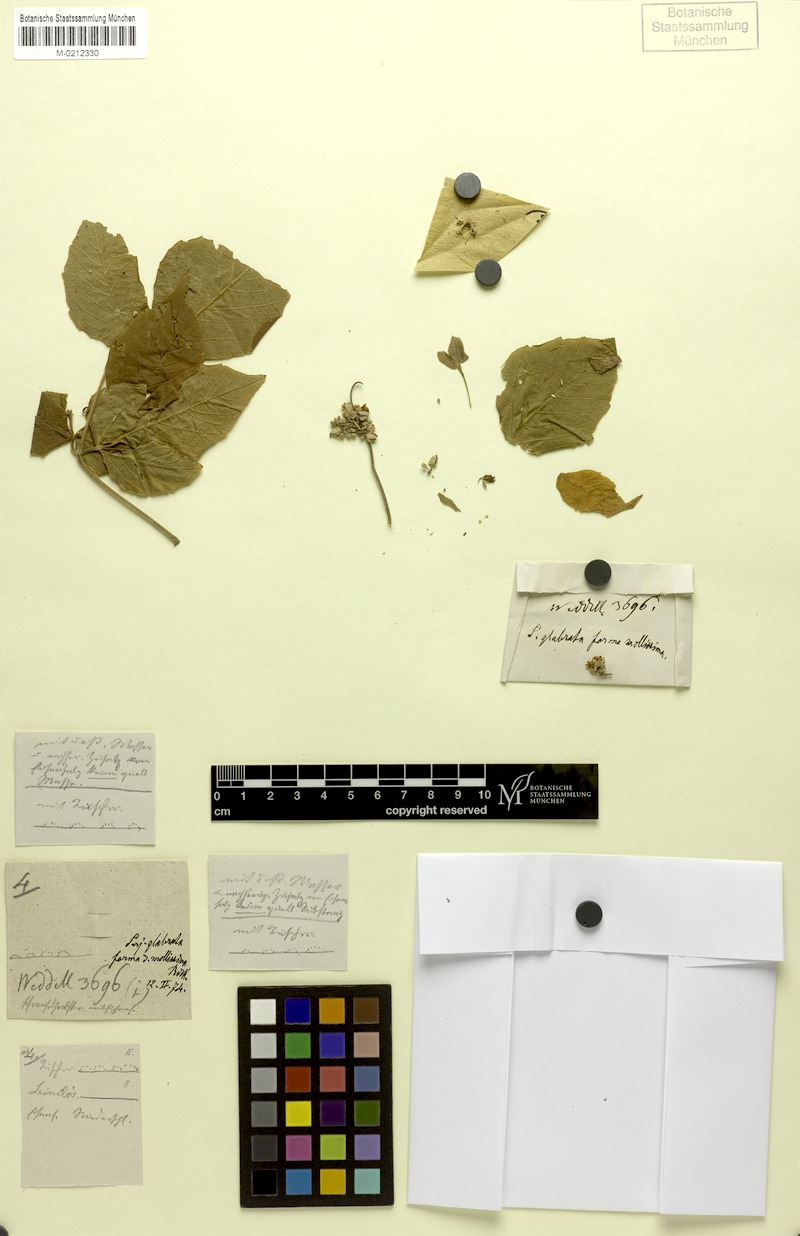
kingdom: Plantae
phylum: Tracheophyta
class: Magnoliopsida
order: Sapindales
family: Sapindaceae
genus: Serjania
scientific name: Serjania glabrata
